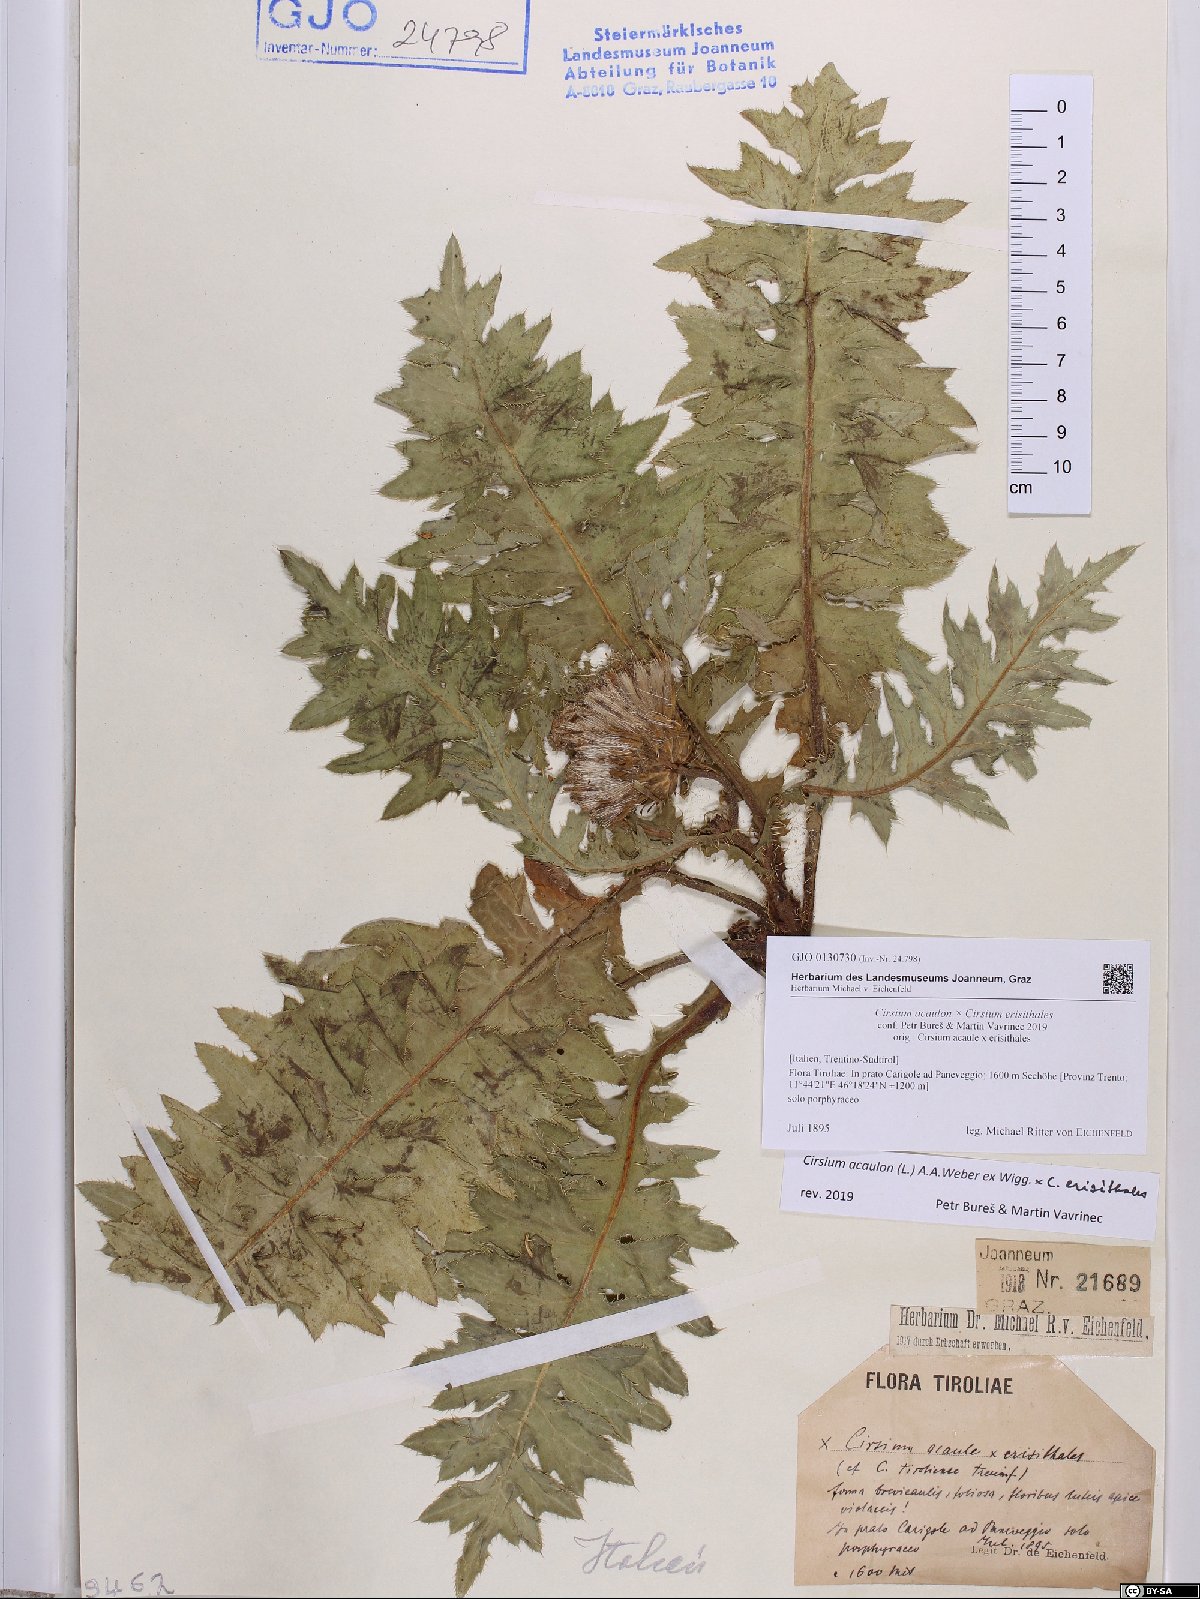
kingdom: Plantae
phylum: Tracheophyta
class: Magnoliopsida
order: Asterales
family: Asteraceae
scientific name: Asteraceae
